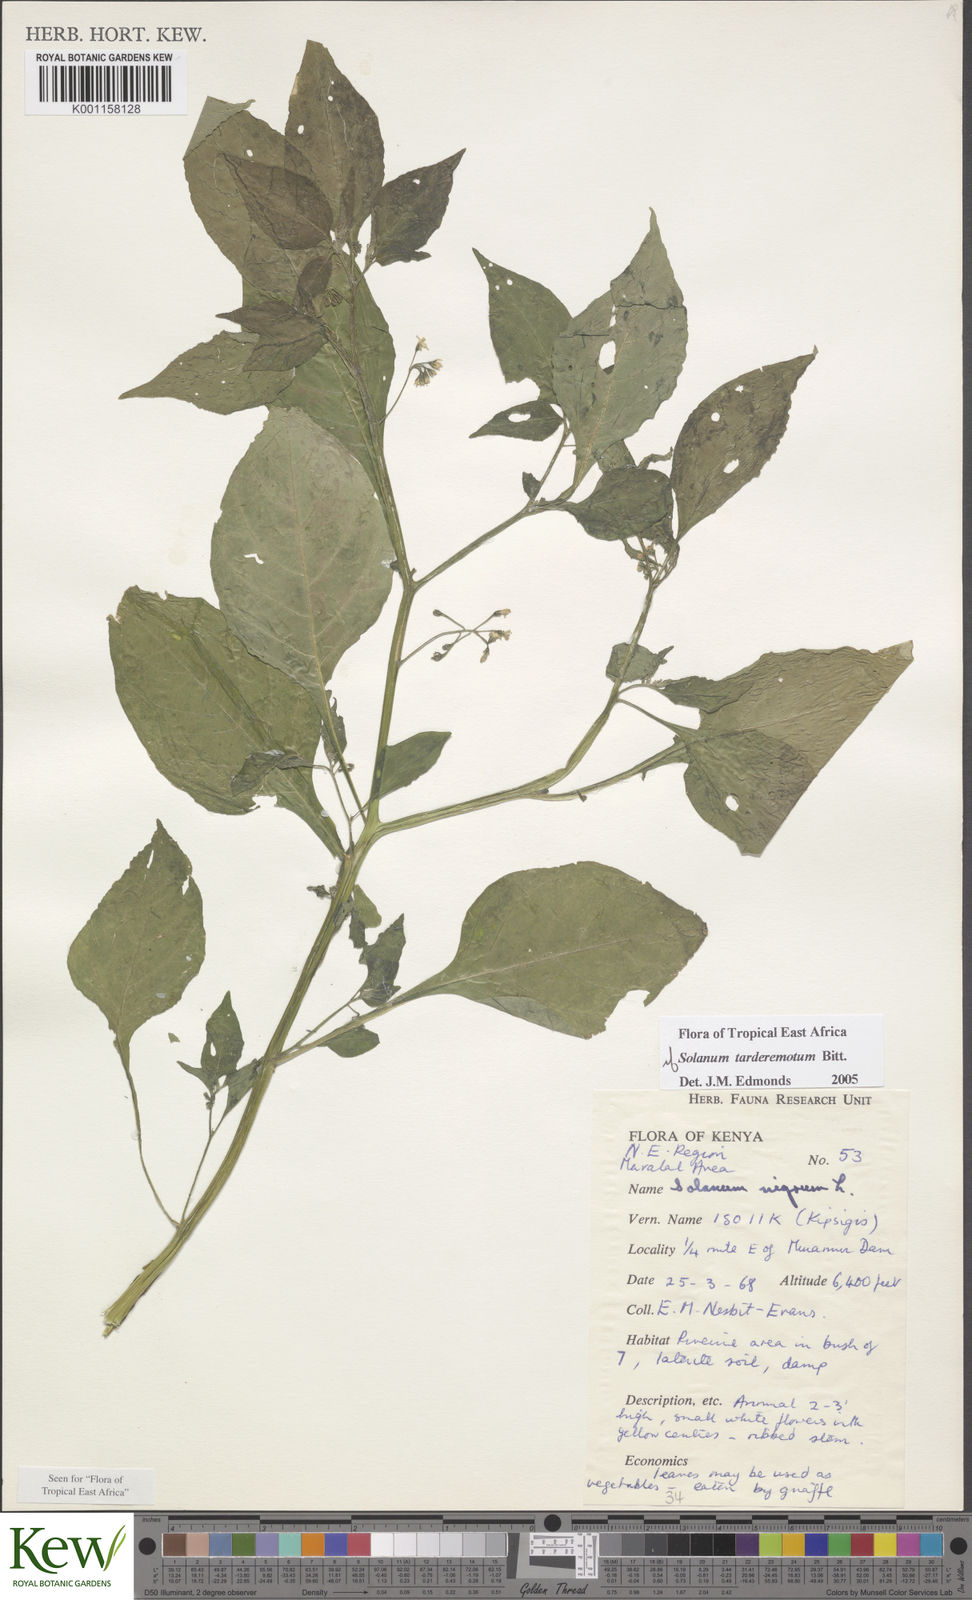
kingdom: Plantae
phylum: Tracheophyta
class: Magnoliopsida
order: Solanales
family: Solanaceae
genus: Solanum
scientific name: Solanum tarderemotum
